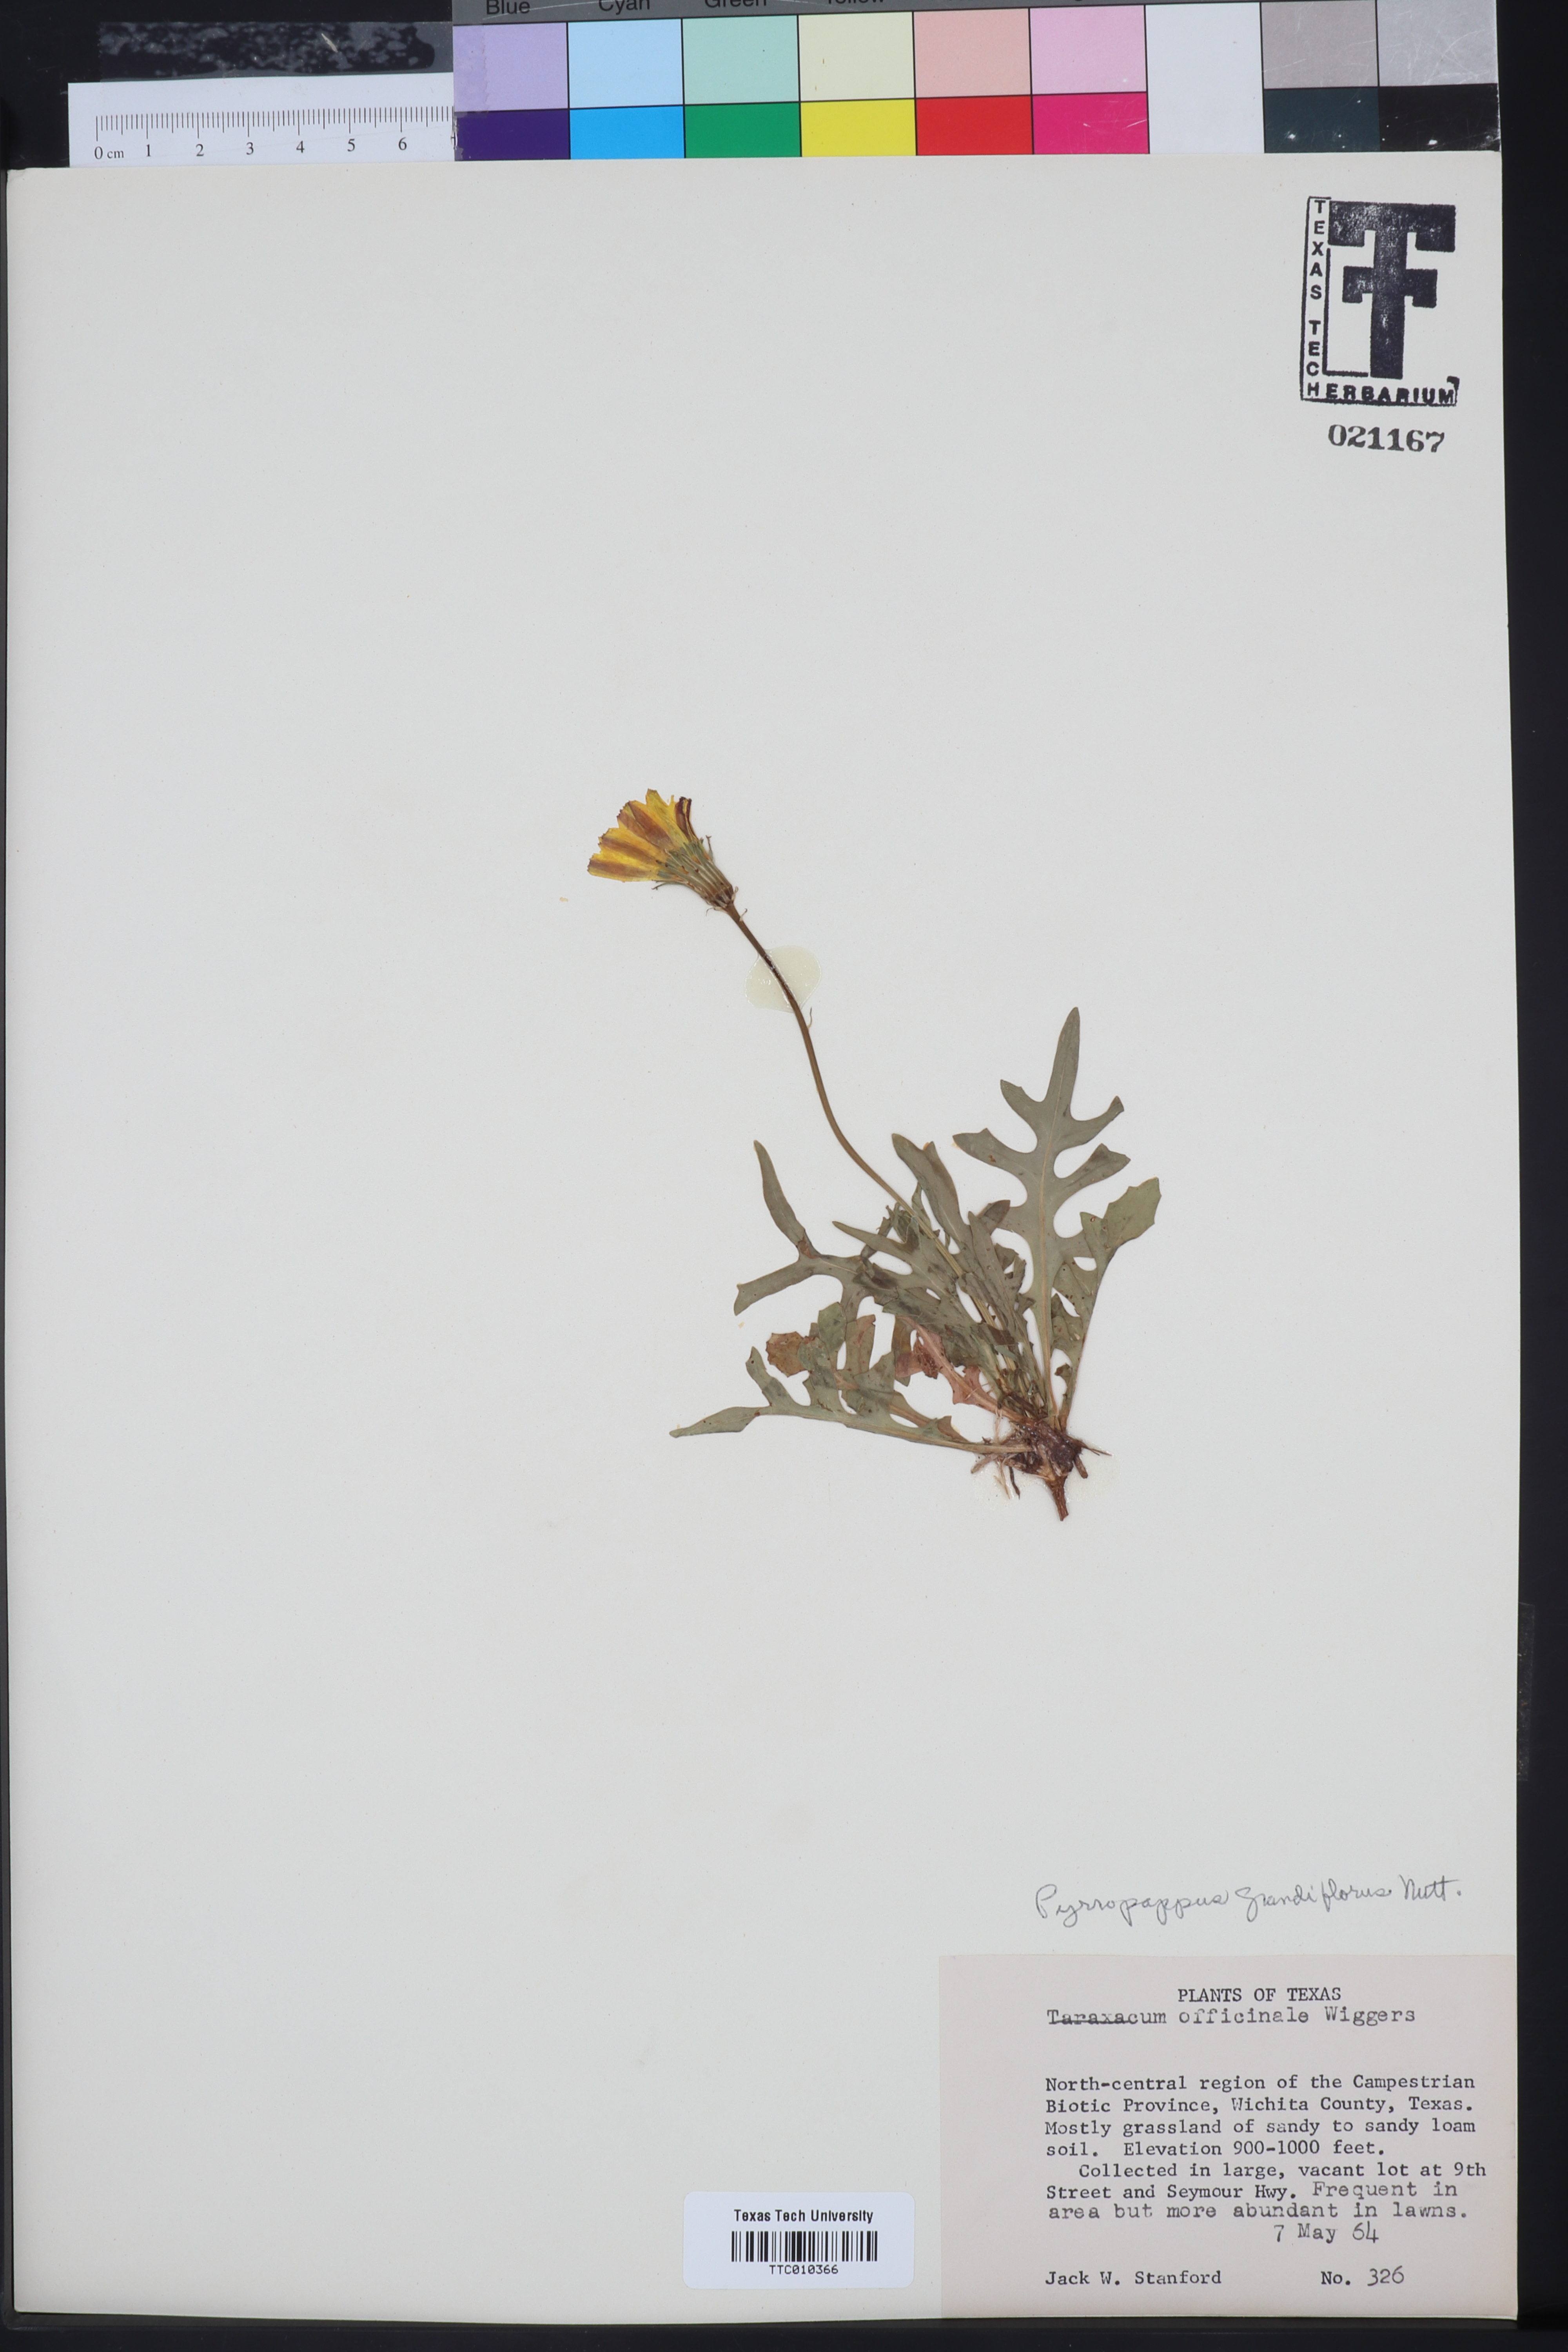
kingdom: Plantae
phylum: Tracheophyta
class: Magnoliopsida
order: Asterales
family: Asteraceae
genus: Pyrrhopappus
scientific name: Pyrrhopappus grandiflorus
